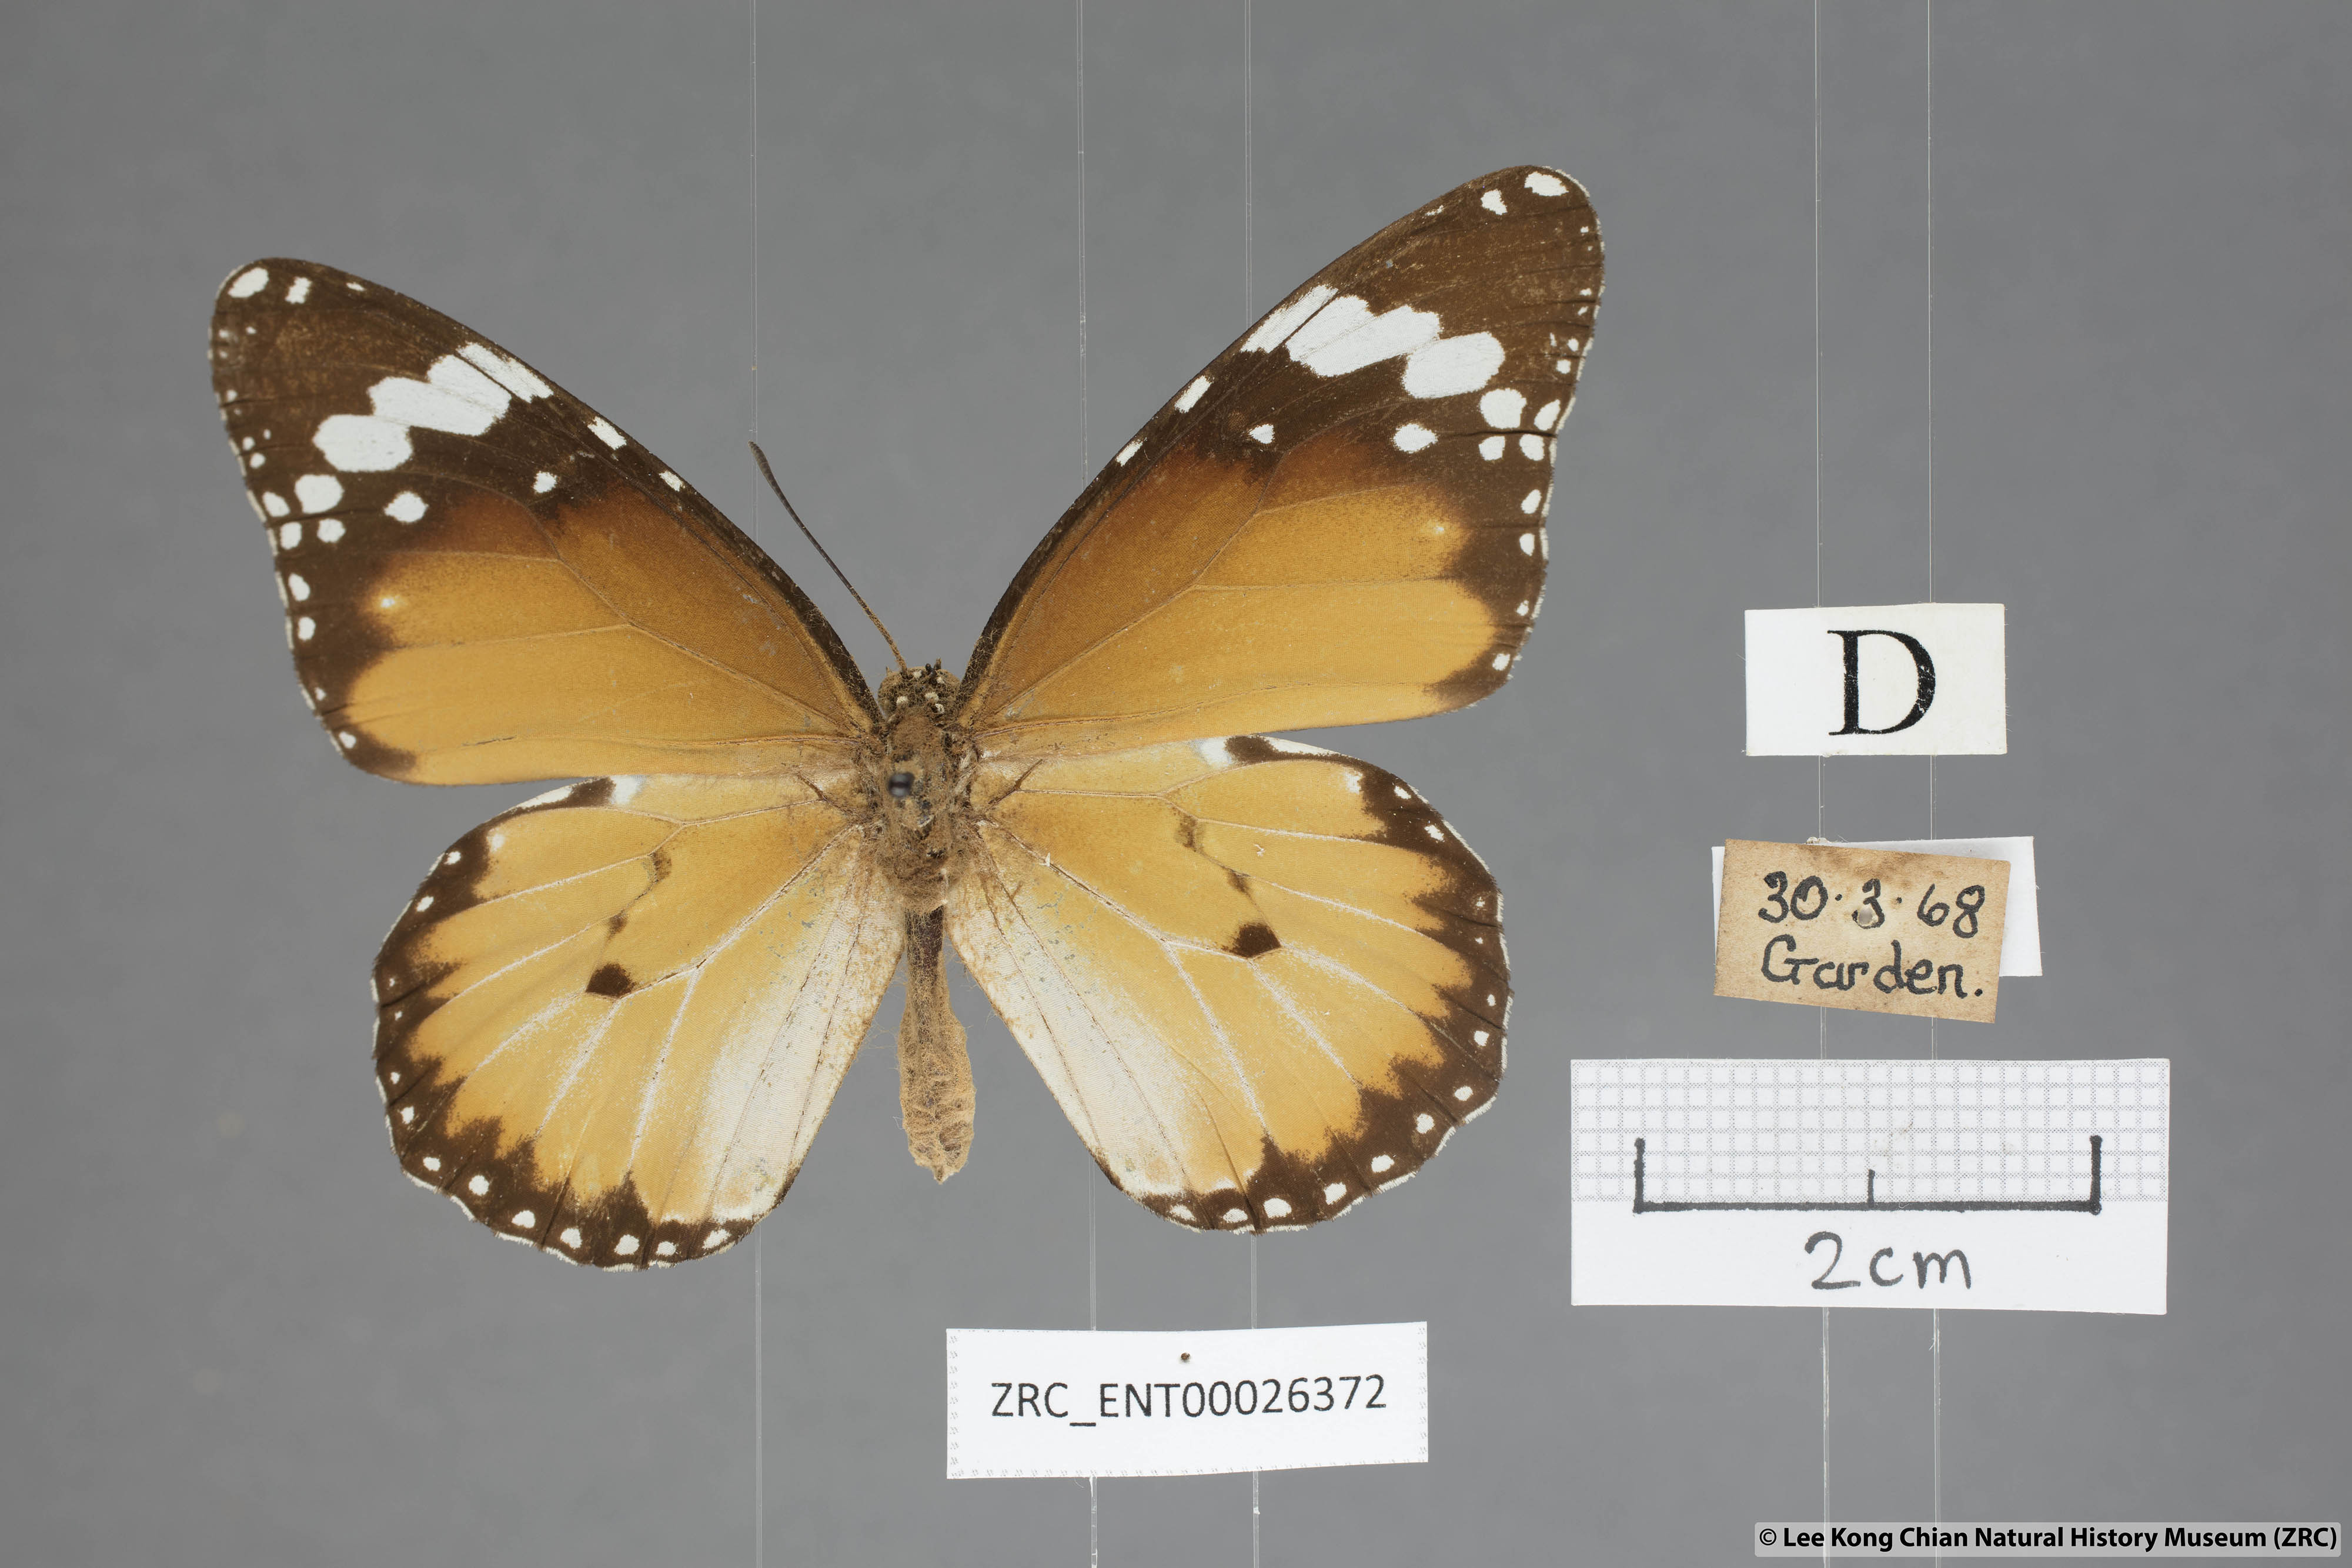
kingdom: Animalia
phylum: Arthropoda
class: Insecta
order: Lepidoptera
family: Nymphalidae
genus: Danaus
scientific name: Danaus chrysippus
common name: Plain tiger
